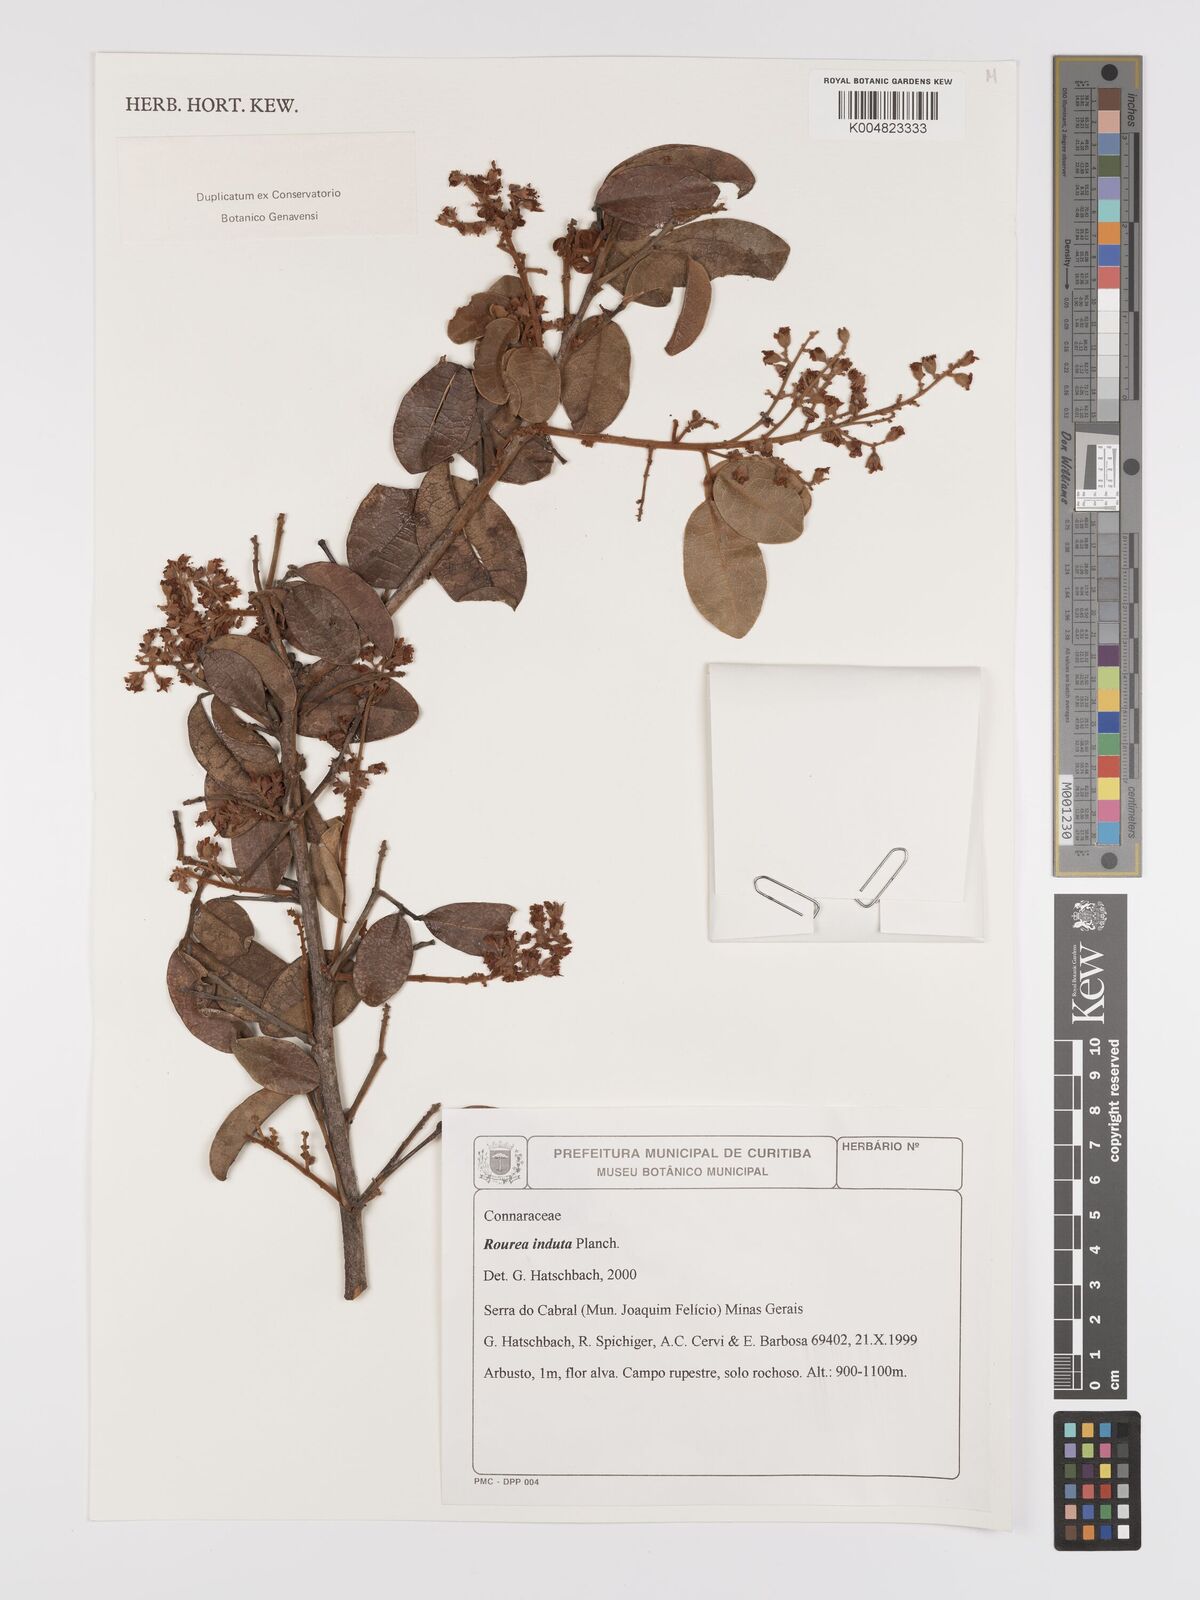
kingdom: Plantae
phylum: Tracheophyta
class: Magnoliopsida
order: Oxalidales
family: Connaraceae
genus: Rourea
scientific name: Rourea induta
